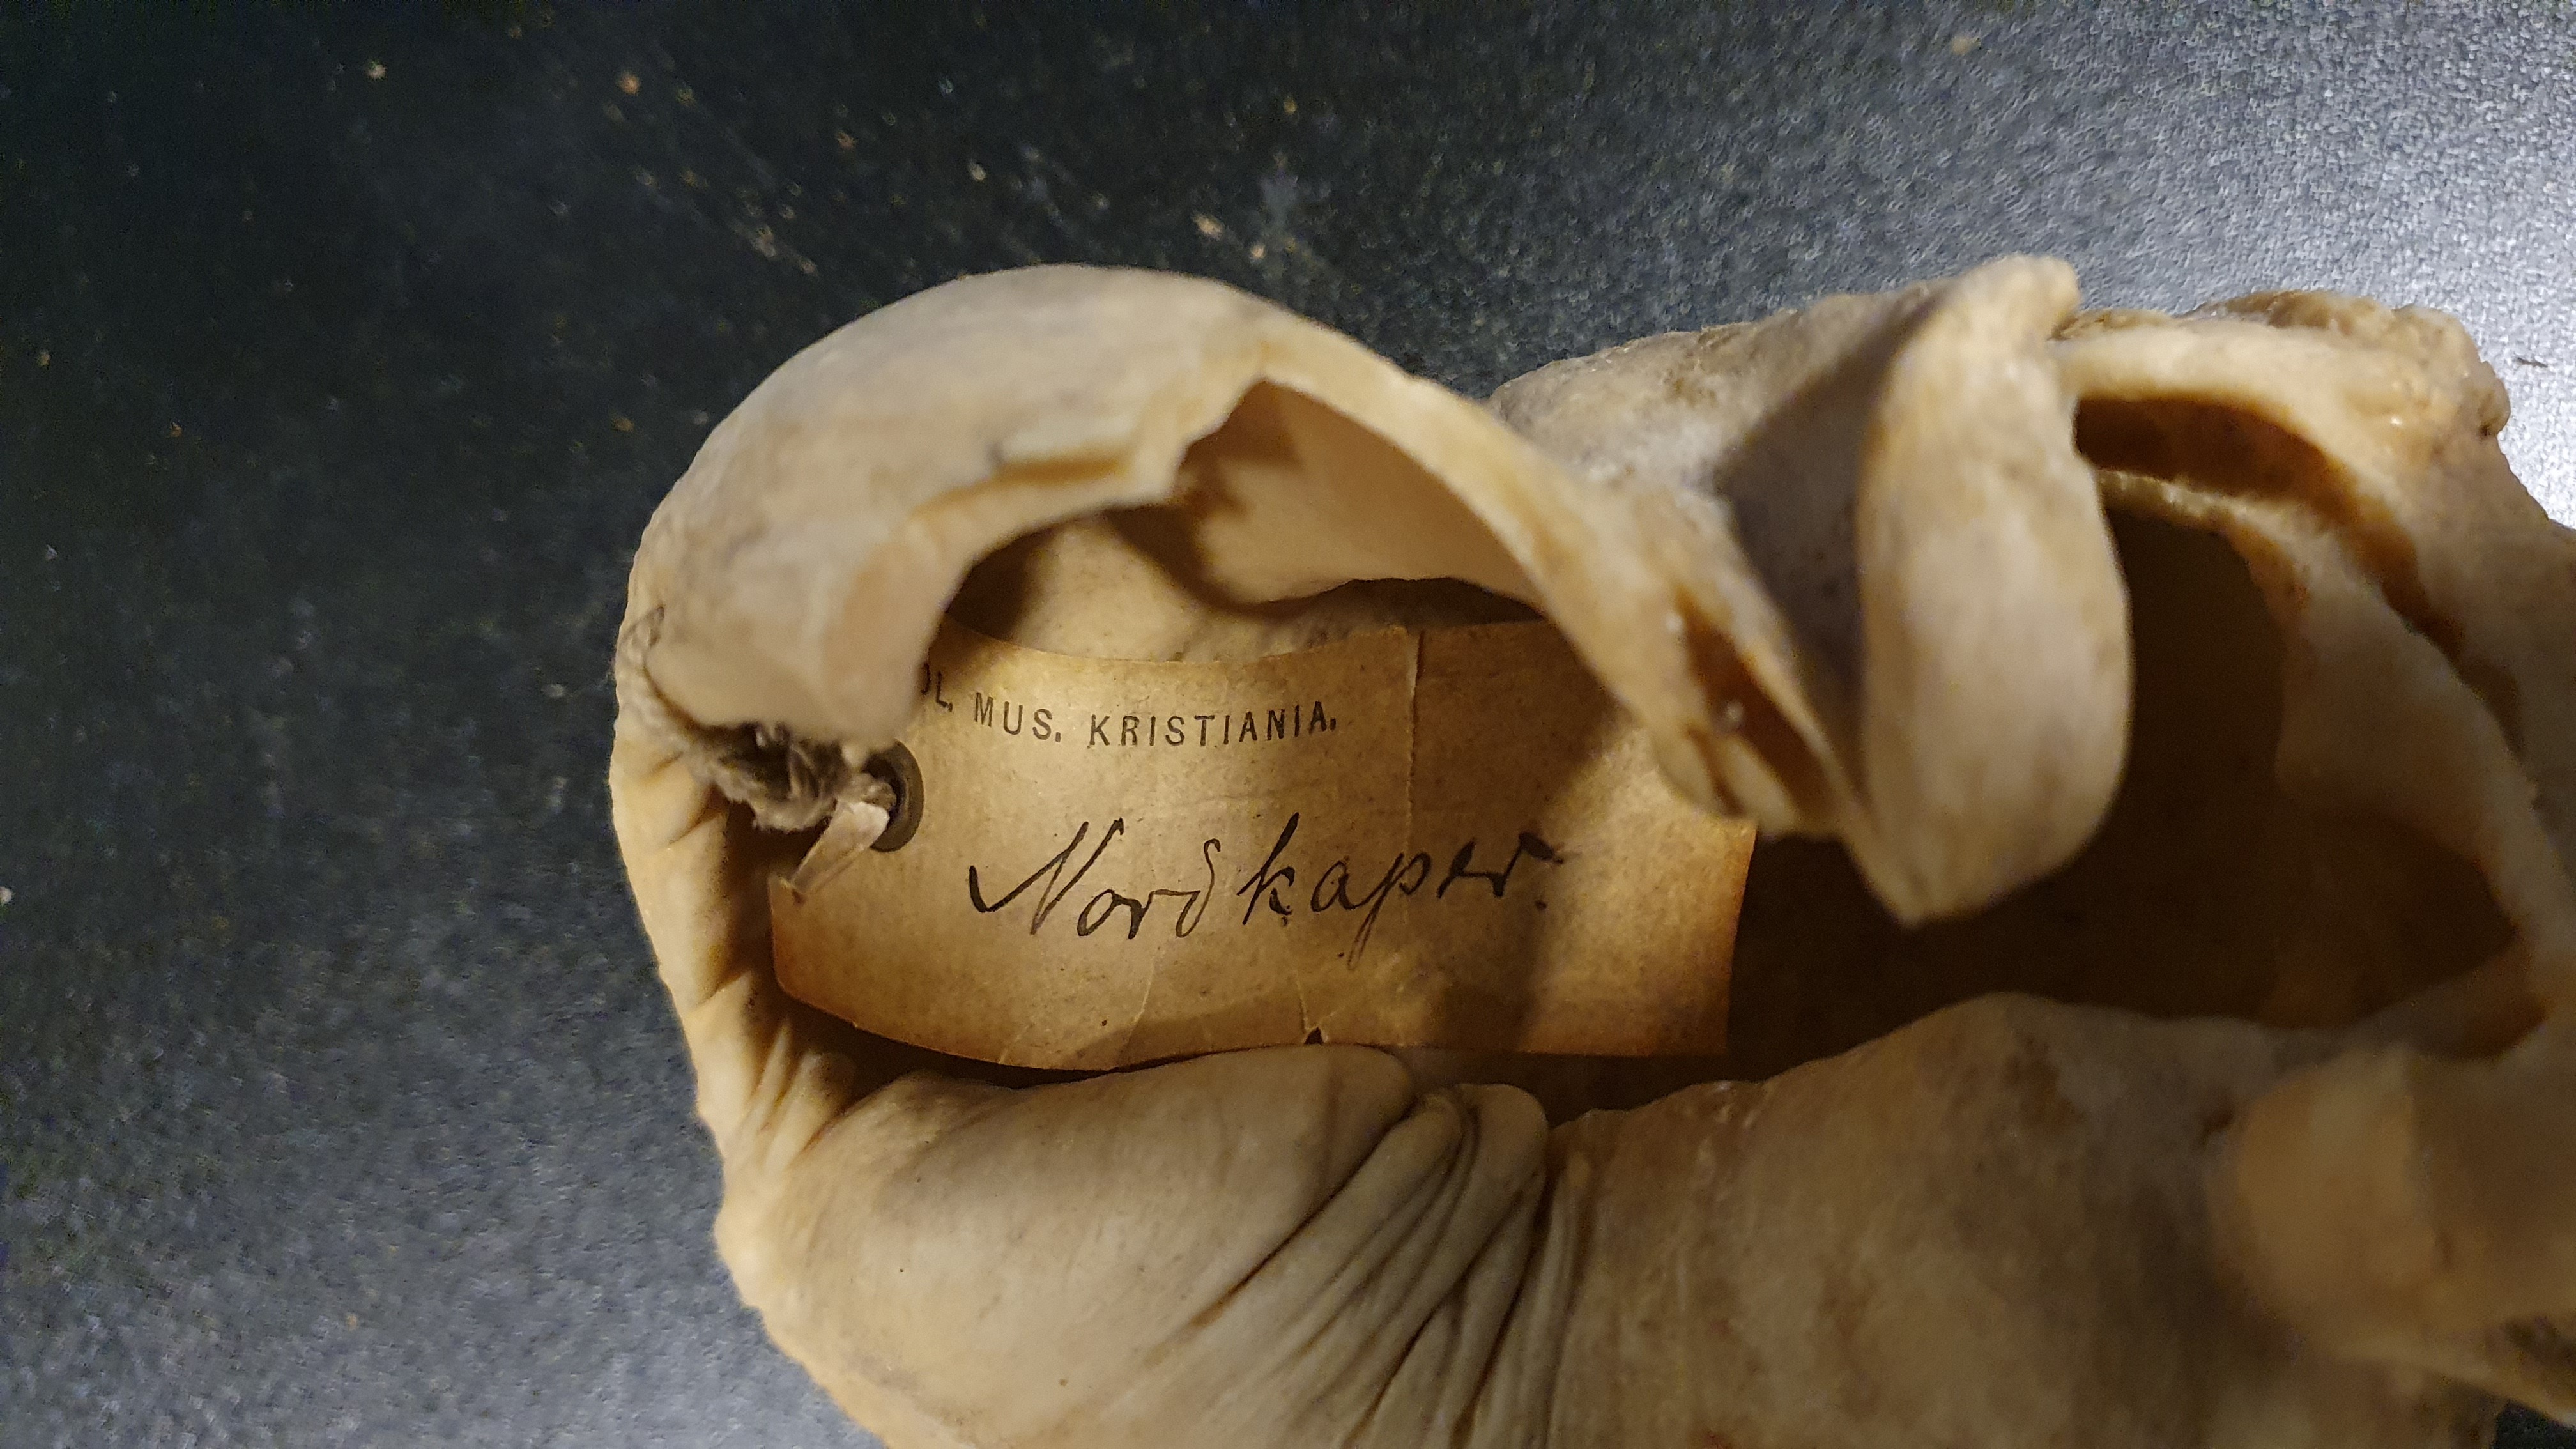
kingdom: Animalia
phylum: Chordata
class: Mammalia
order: Cetacea
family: Balaenidae
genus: Eubalaena
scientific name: Eubalaena glacialis
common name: North atlantic right whale
